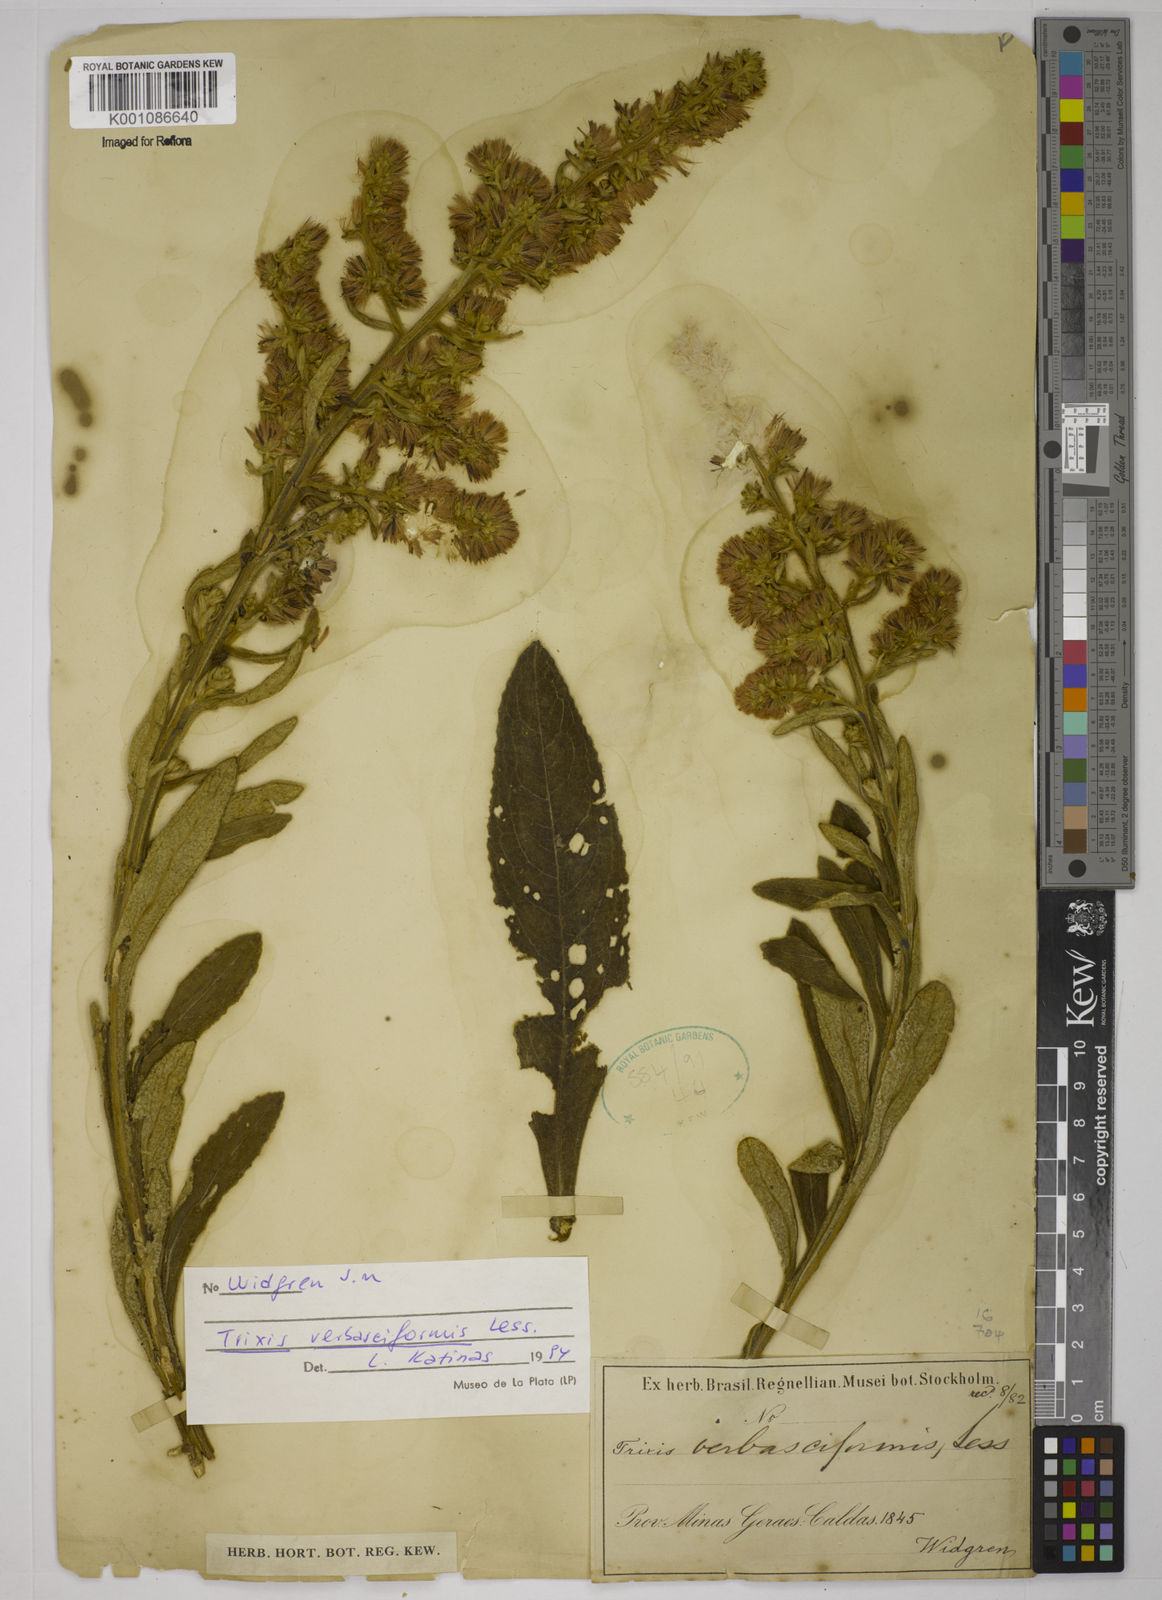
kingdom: Plantae
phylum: Tracheophyta
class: Magnoliopsida
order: Asterales
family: Asteraceae
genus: Trixis
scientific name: Trixis nobilis
